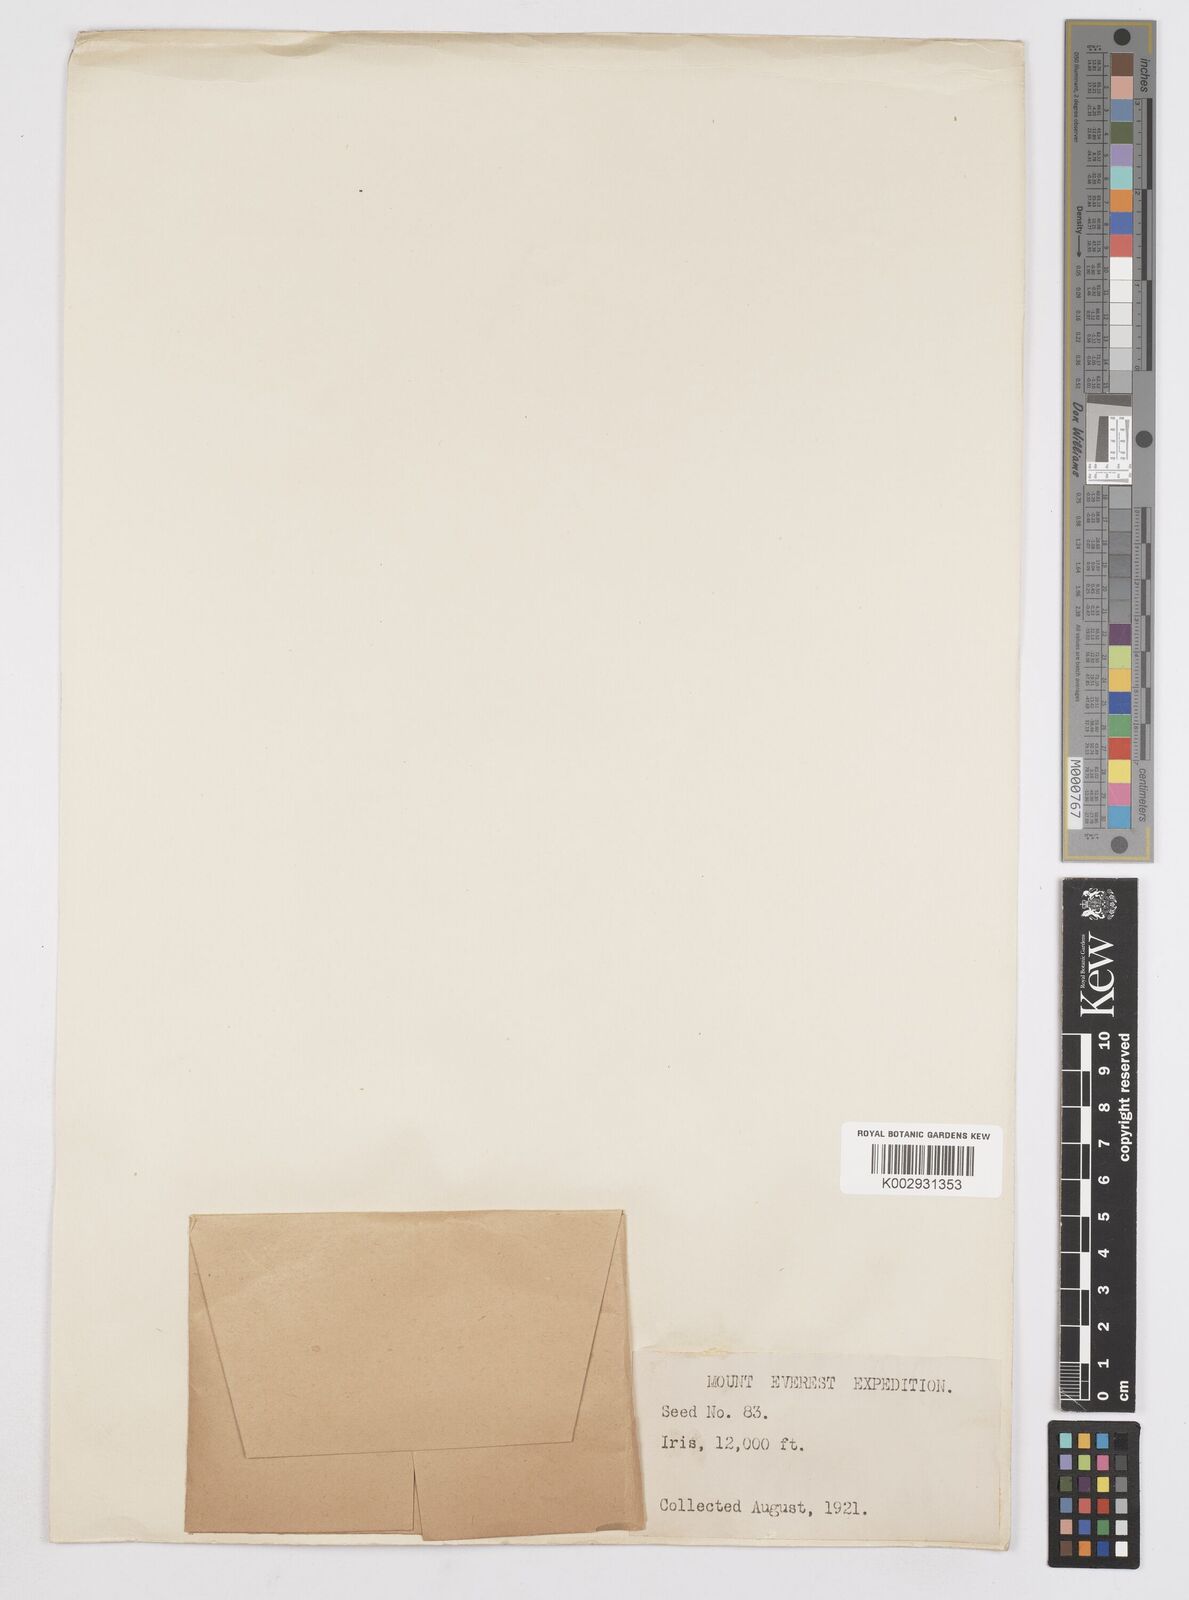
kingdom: Plantae
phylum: Tracheophyta
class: Liliopsida
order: Asparagales
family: Iridaceae
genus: Iris
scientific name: Iris
